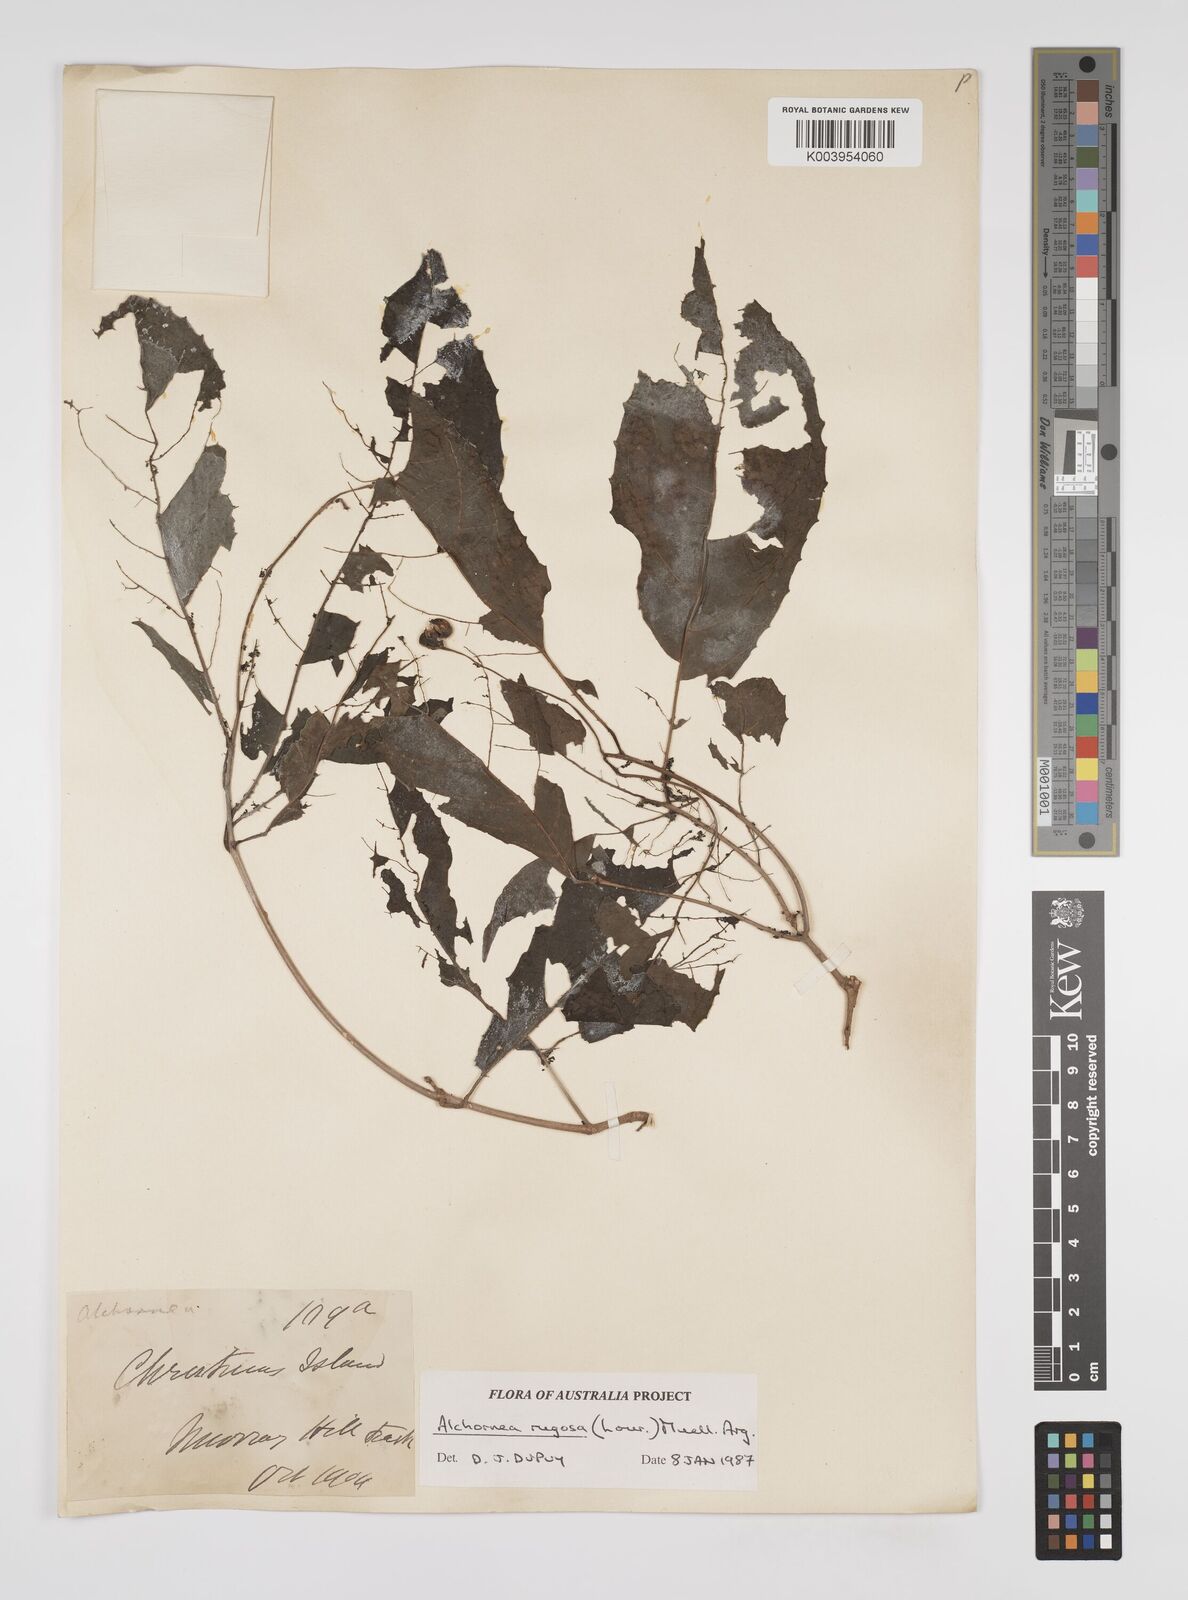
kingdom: Plantae
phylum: Tracheophyta
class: Magnoliopsida
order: Malpighiales
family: Euphorbiaceae
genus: Alchornea
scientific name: Alchornea rugosa
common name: Alchorntree
